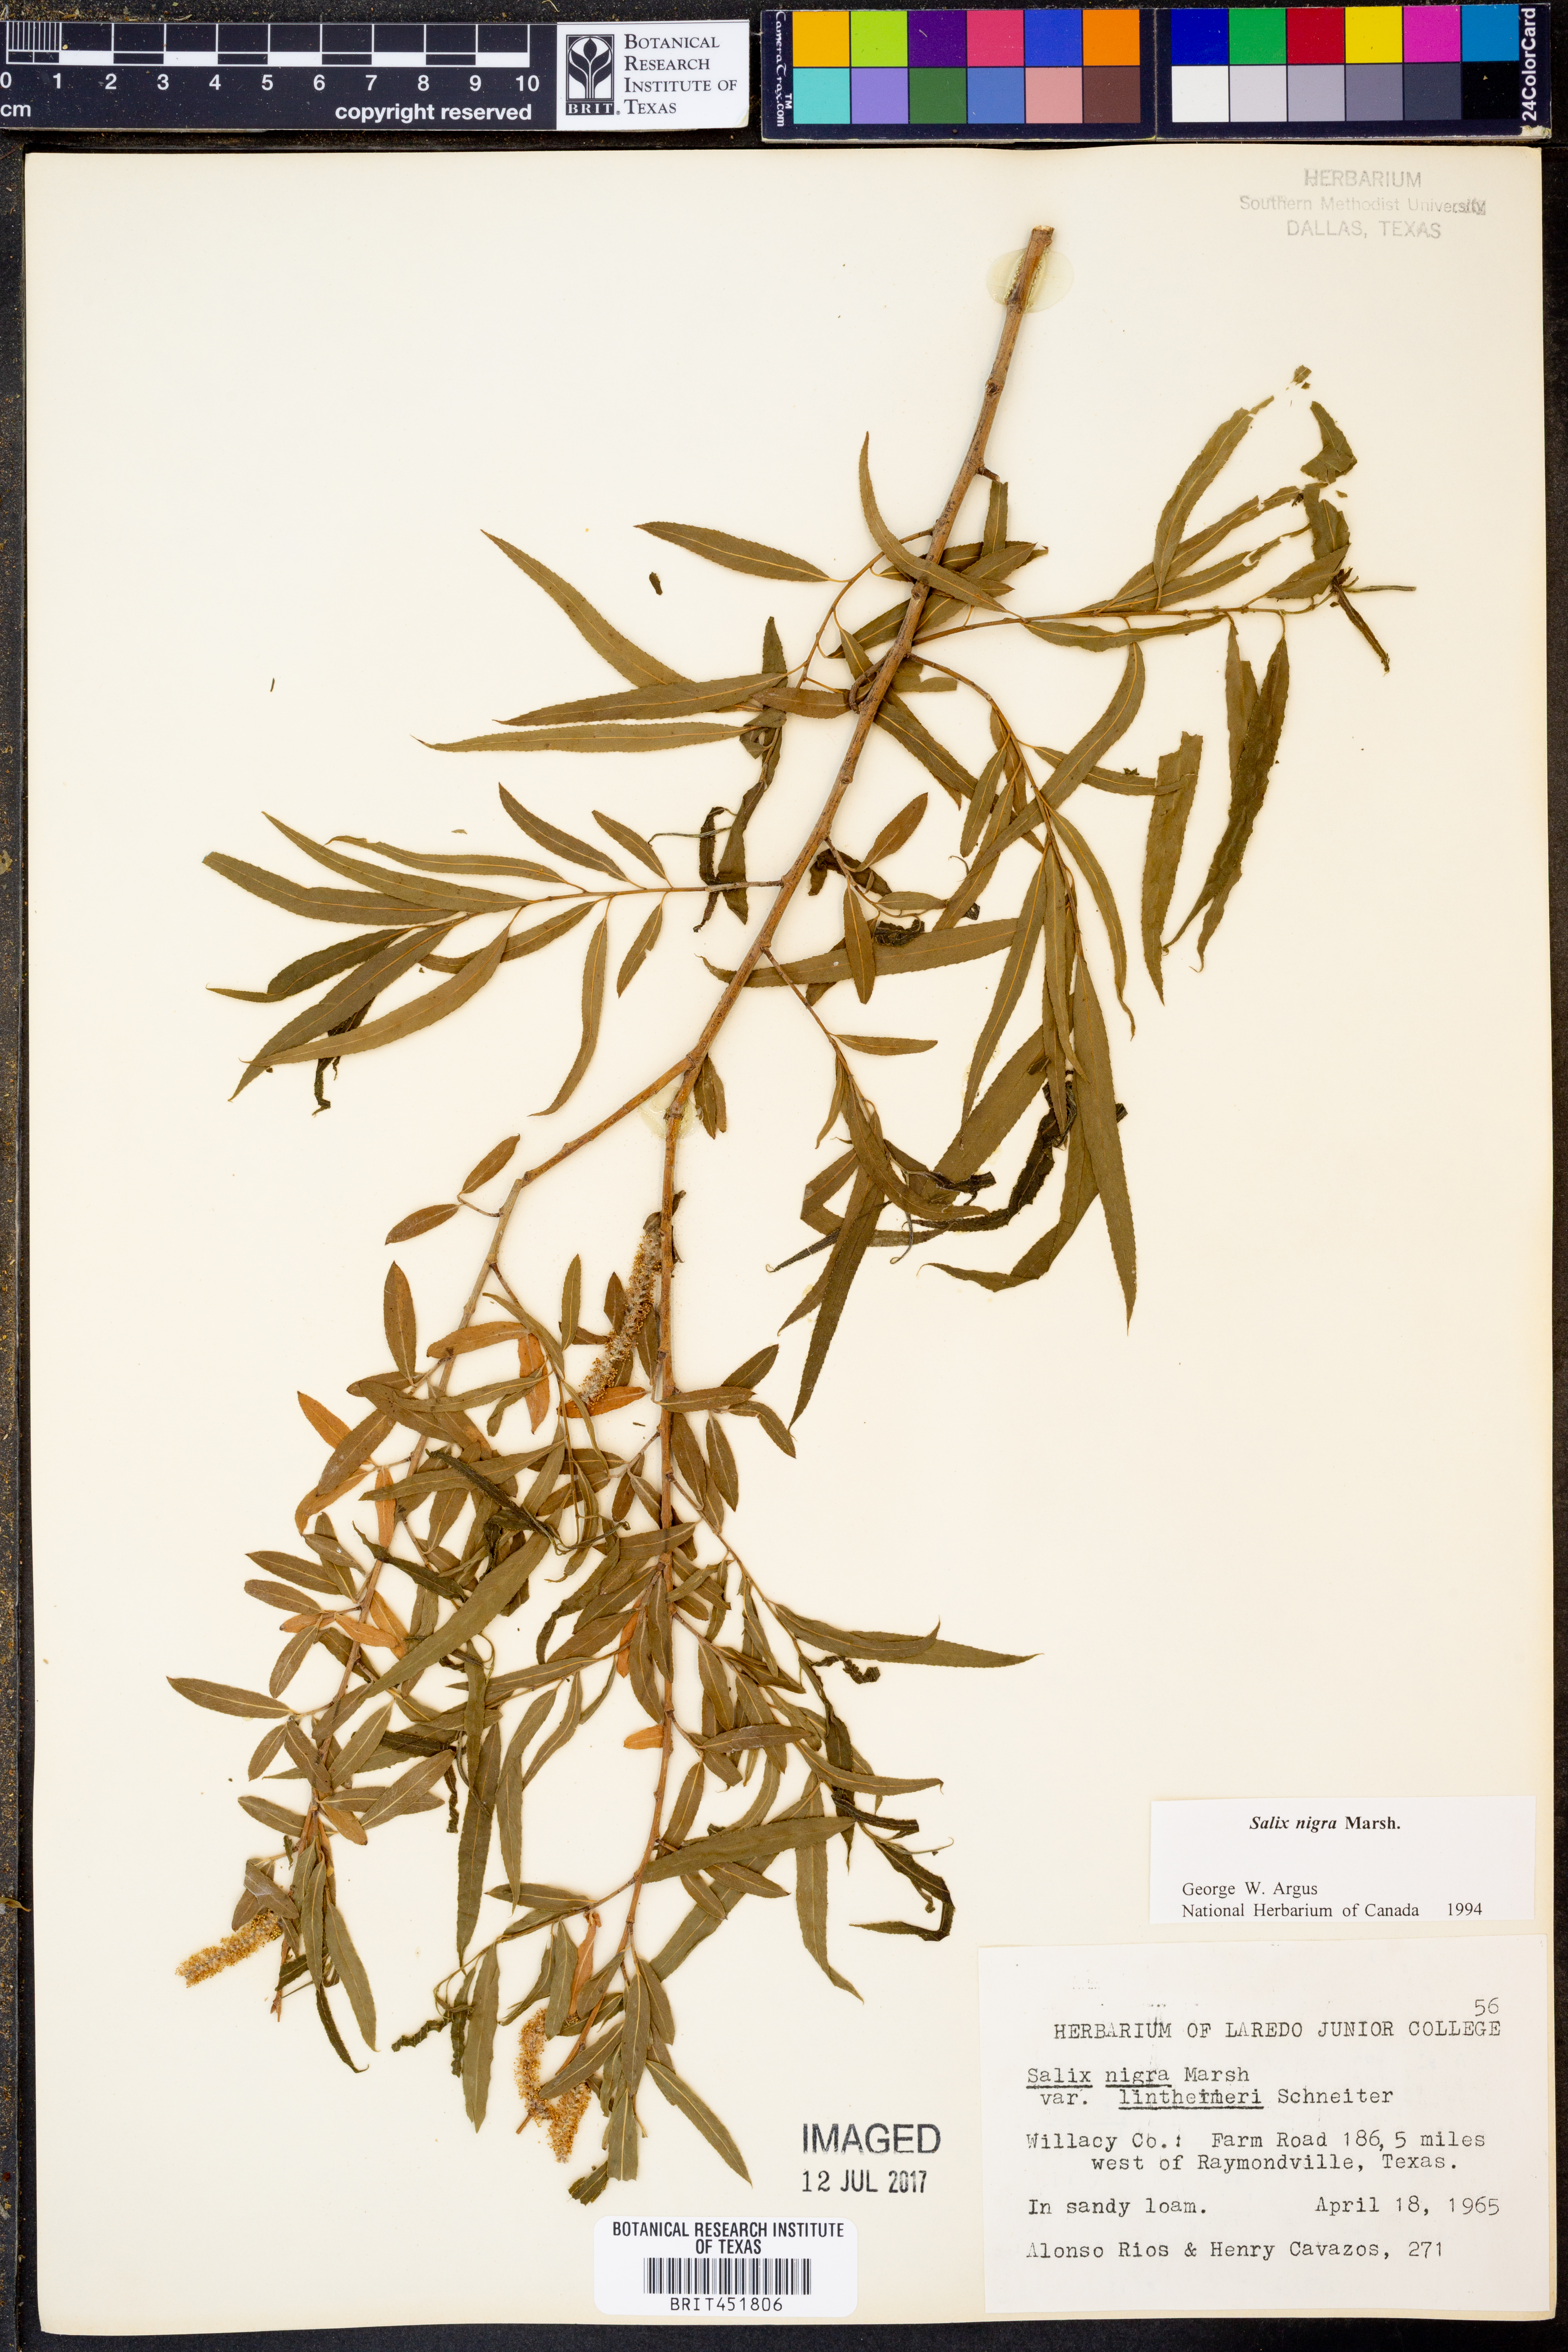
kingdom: Plantae
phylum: Tracheophyta
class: Magnoliopsida
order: Malpighiales
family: Salicaceae
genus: Salix
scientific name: Salix nigra
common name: Black willow
